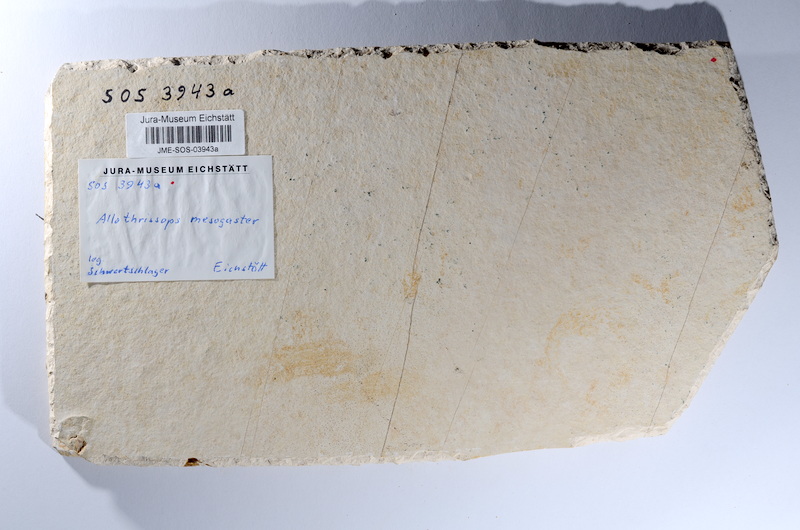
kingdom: Animalia
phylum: Chordata
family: Allothrissopidae
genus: Allothrissops
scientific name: Allothrissops mesogaster
